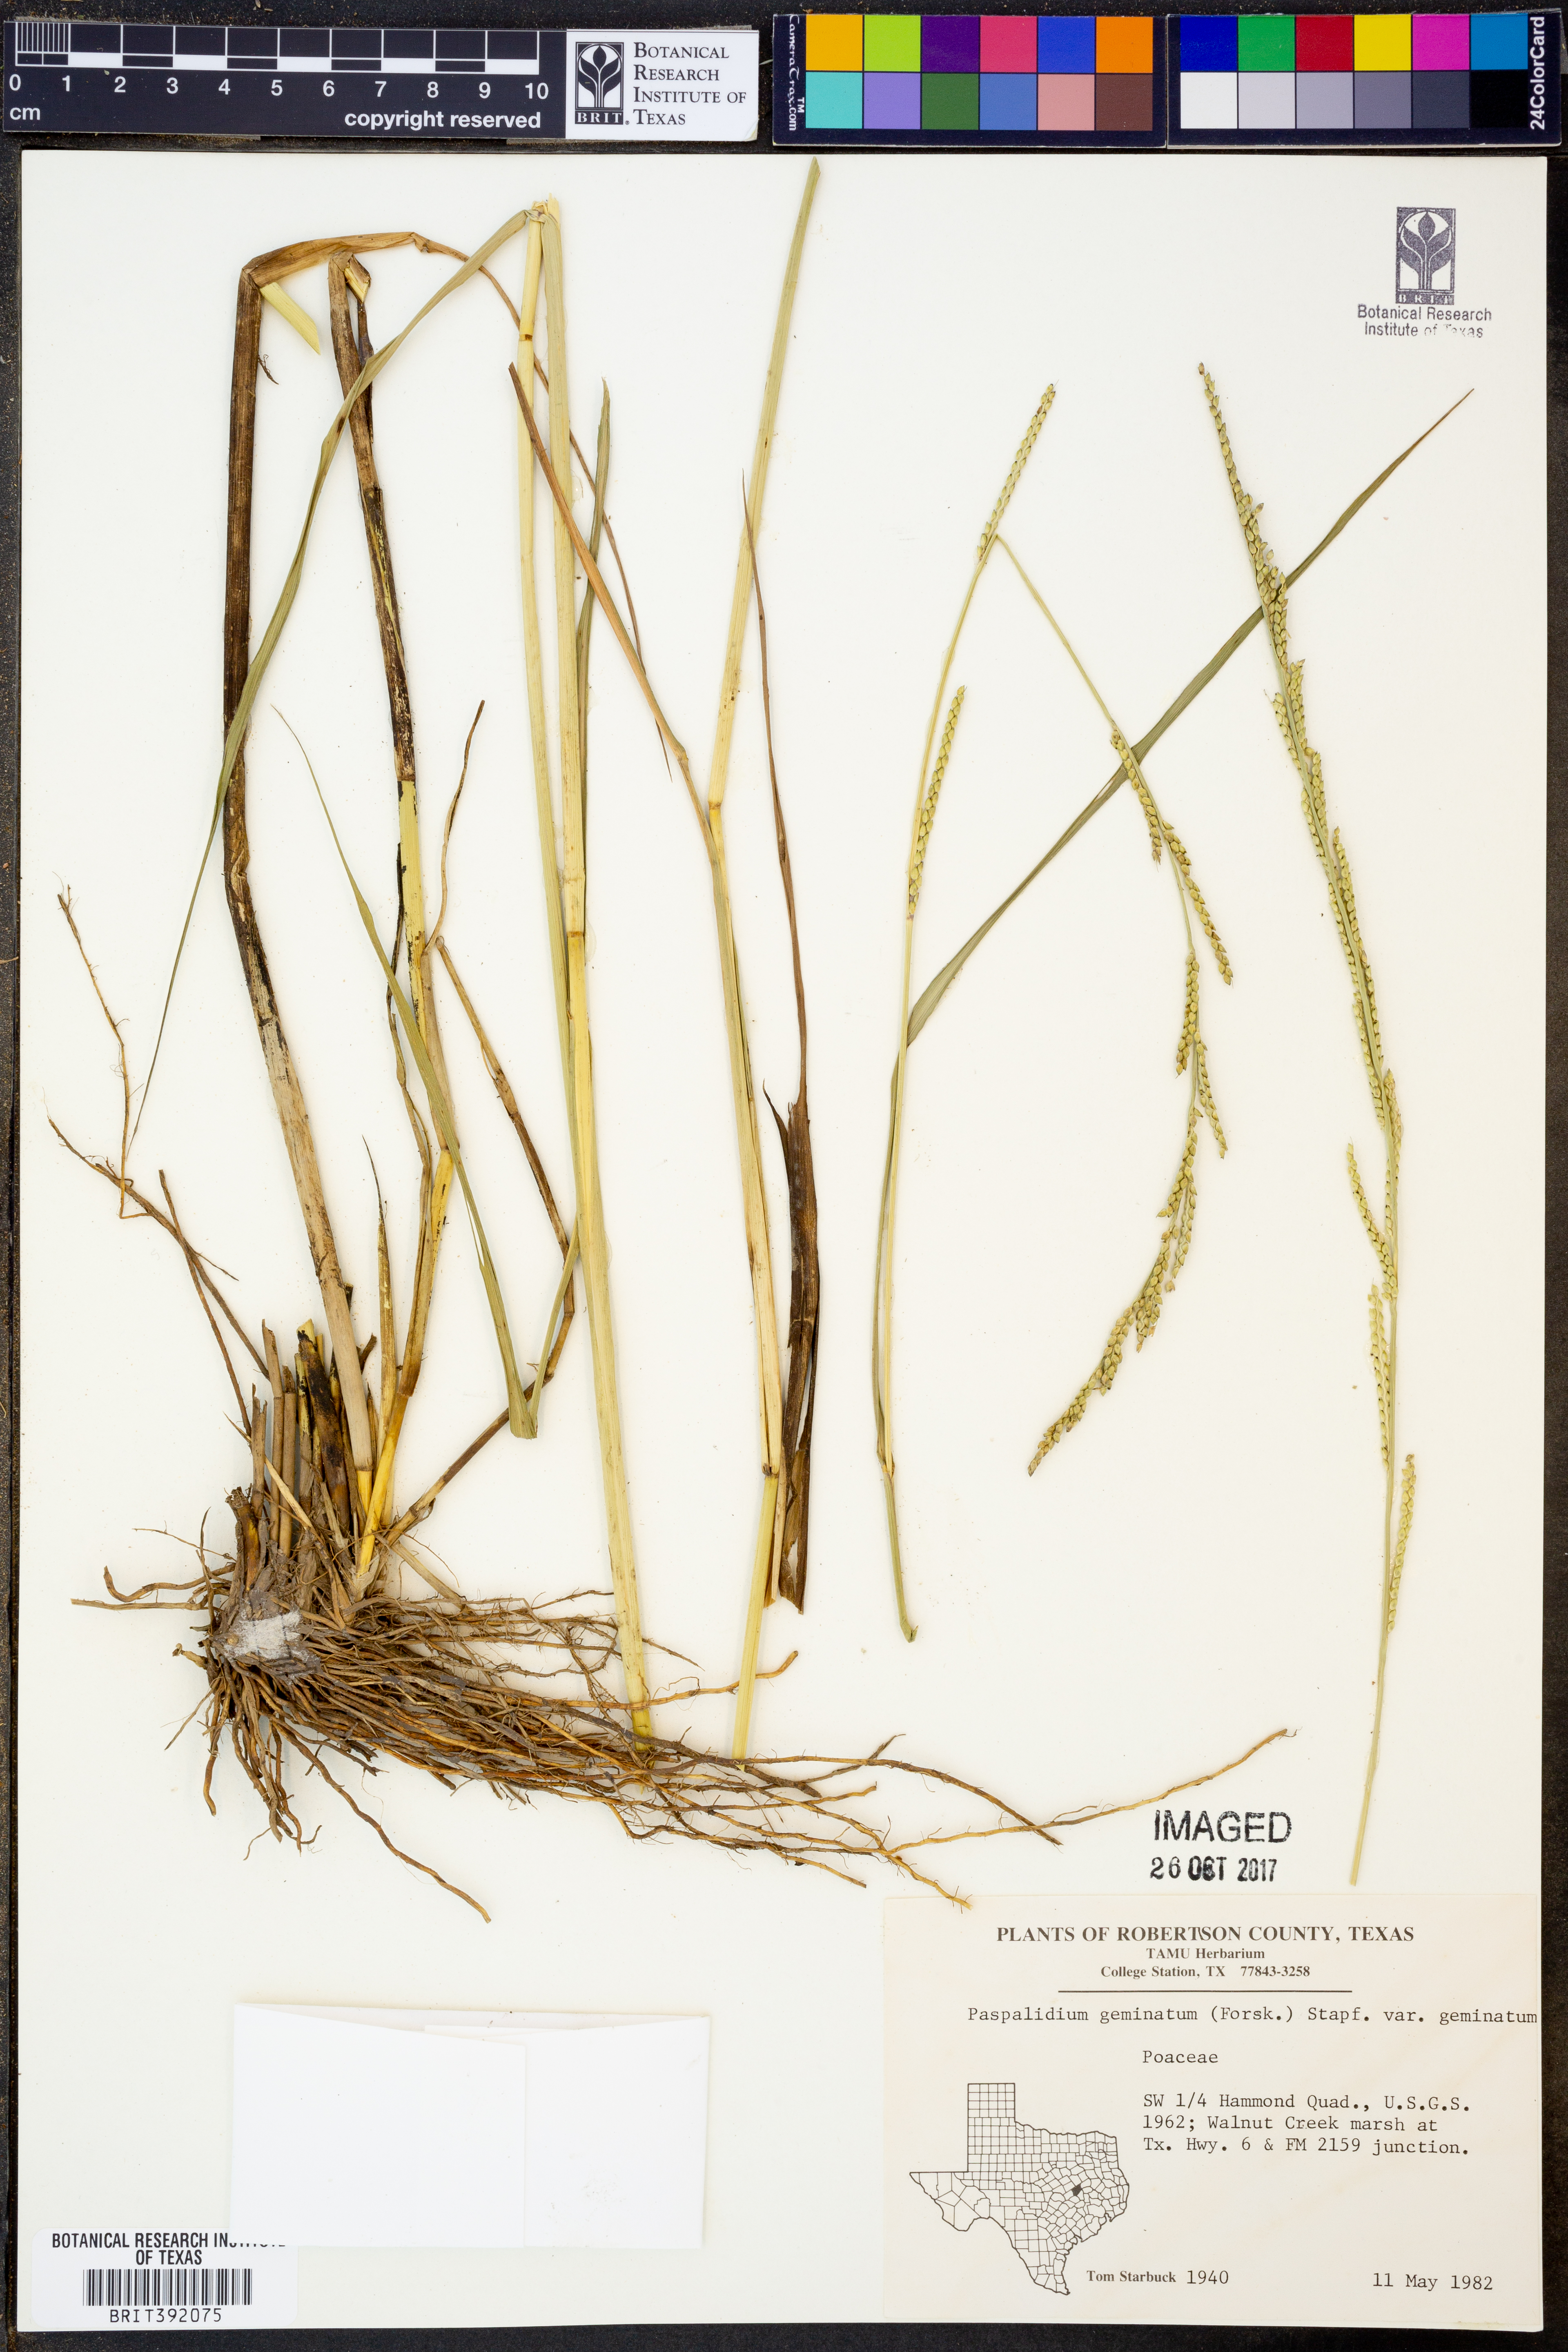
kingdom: Plantae
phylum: Tracheophyta
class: Liliopsida
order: Poales
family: Poaceae
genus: Setaria
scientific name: Setaria geminata
